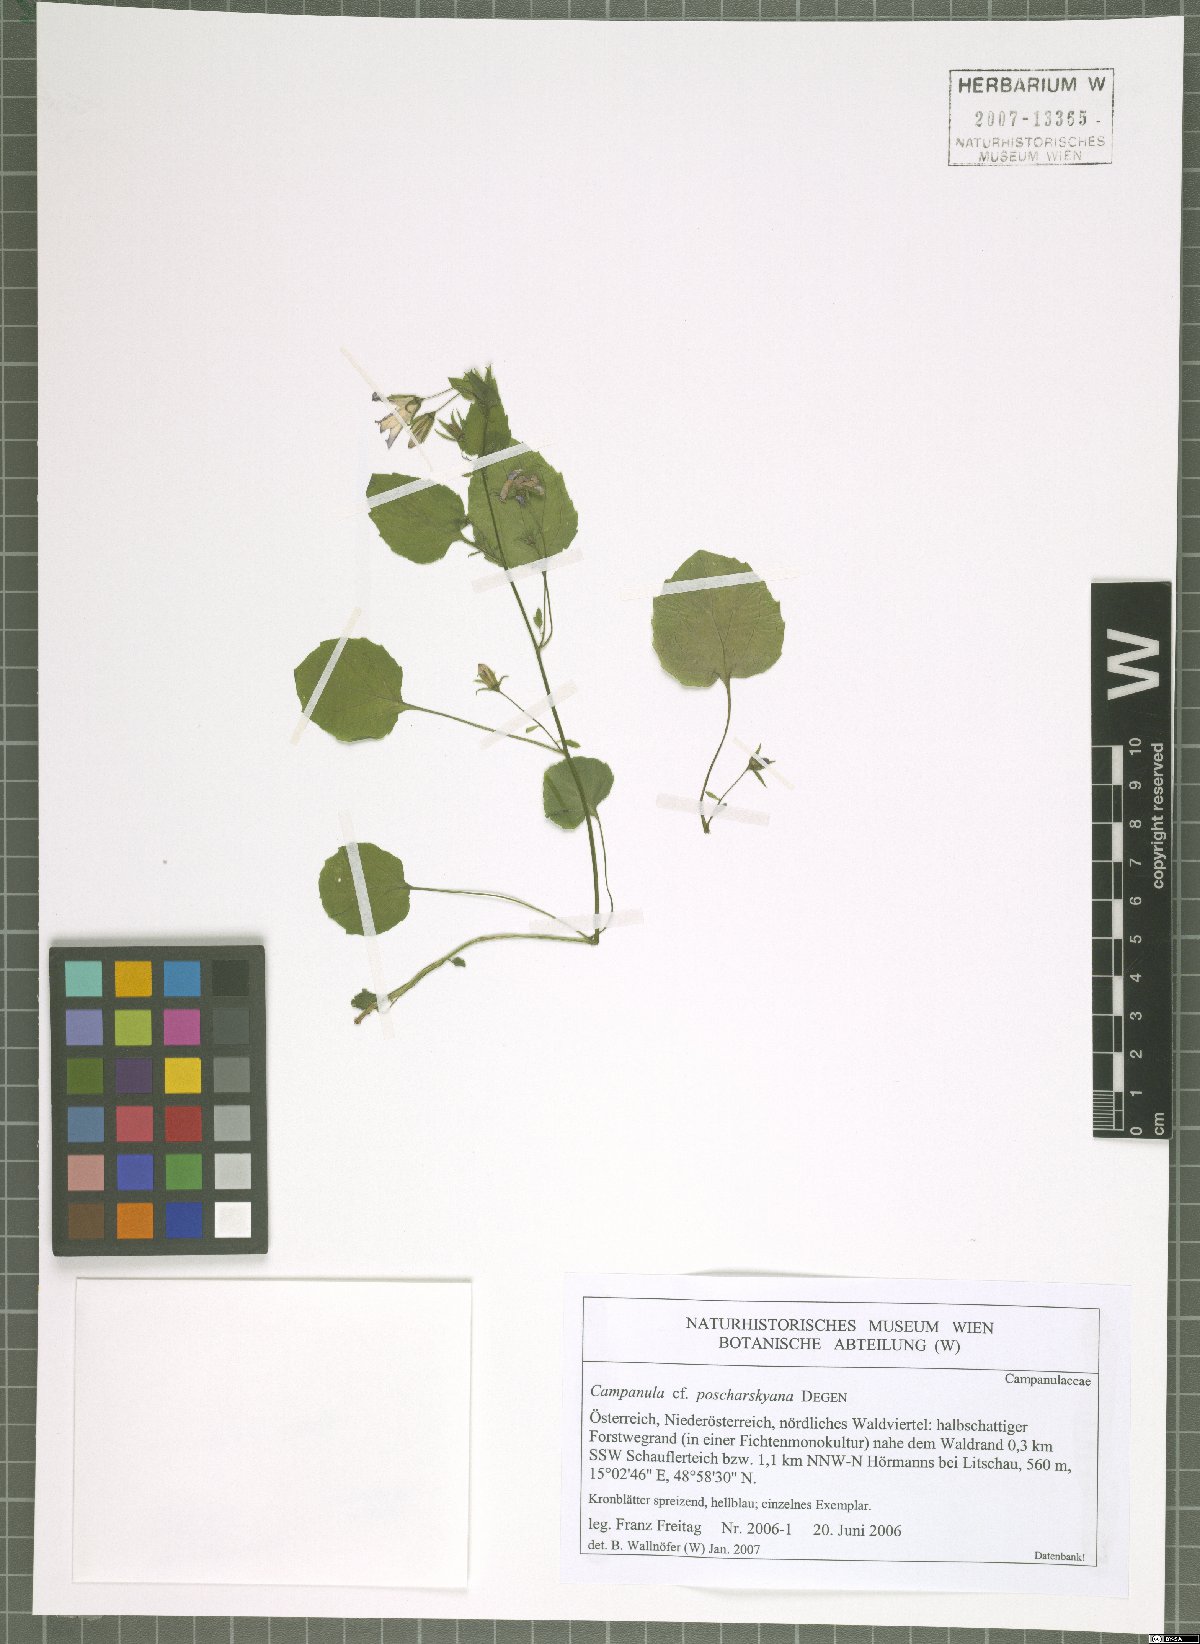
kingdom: Plantae
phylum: Tracheophyta
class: Magnoliopsida
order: Asterales
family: Campanulaceae
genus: Campanula
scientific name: Campanula poscharskyana
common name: Trailing bellflower
